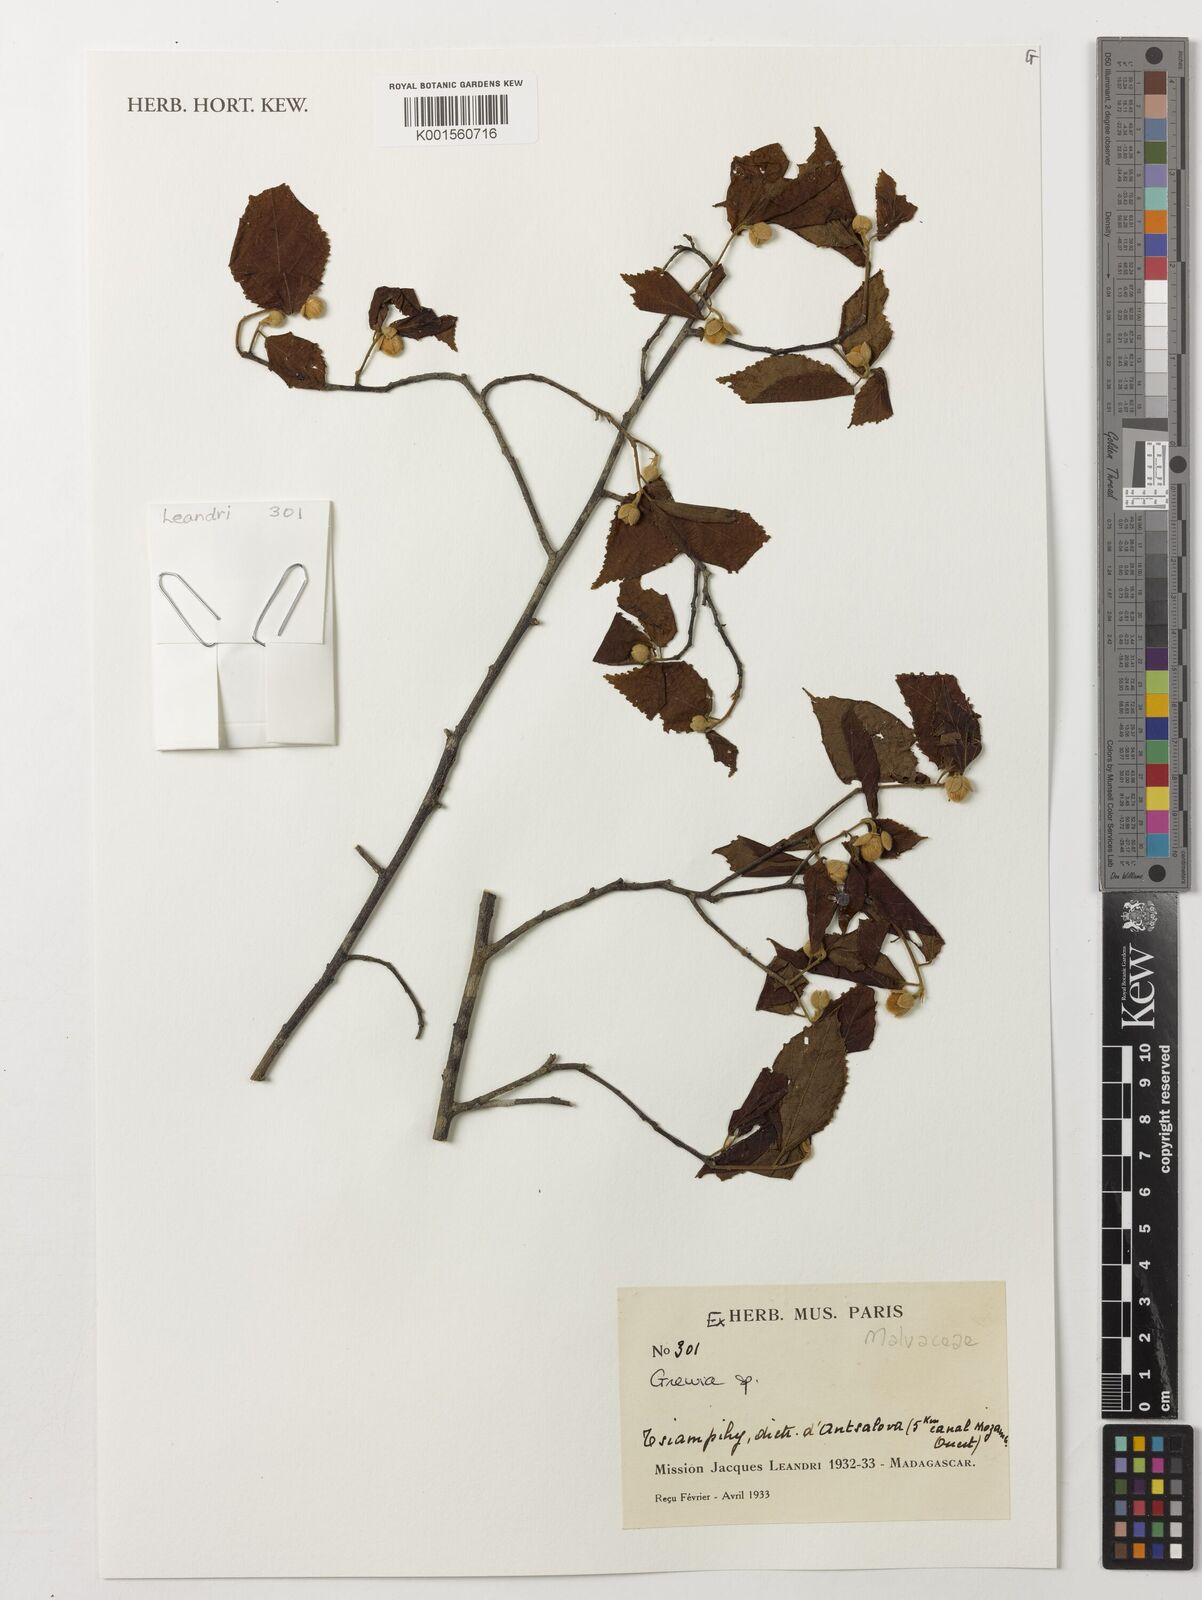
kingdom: Plantae
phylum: Tracheophyta
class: Magnoliopsida
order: Malvales
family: Malvaceae
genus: Grewia
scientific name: Grewia
